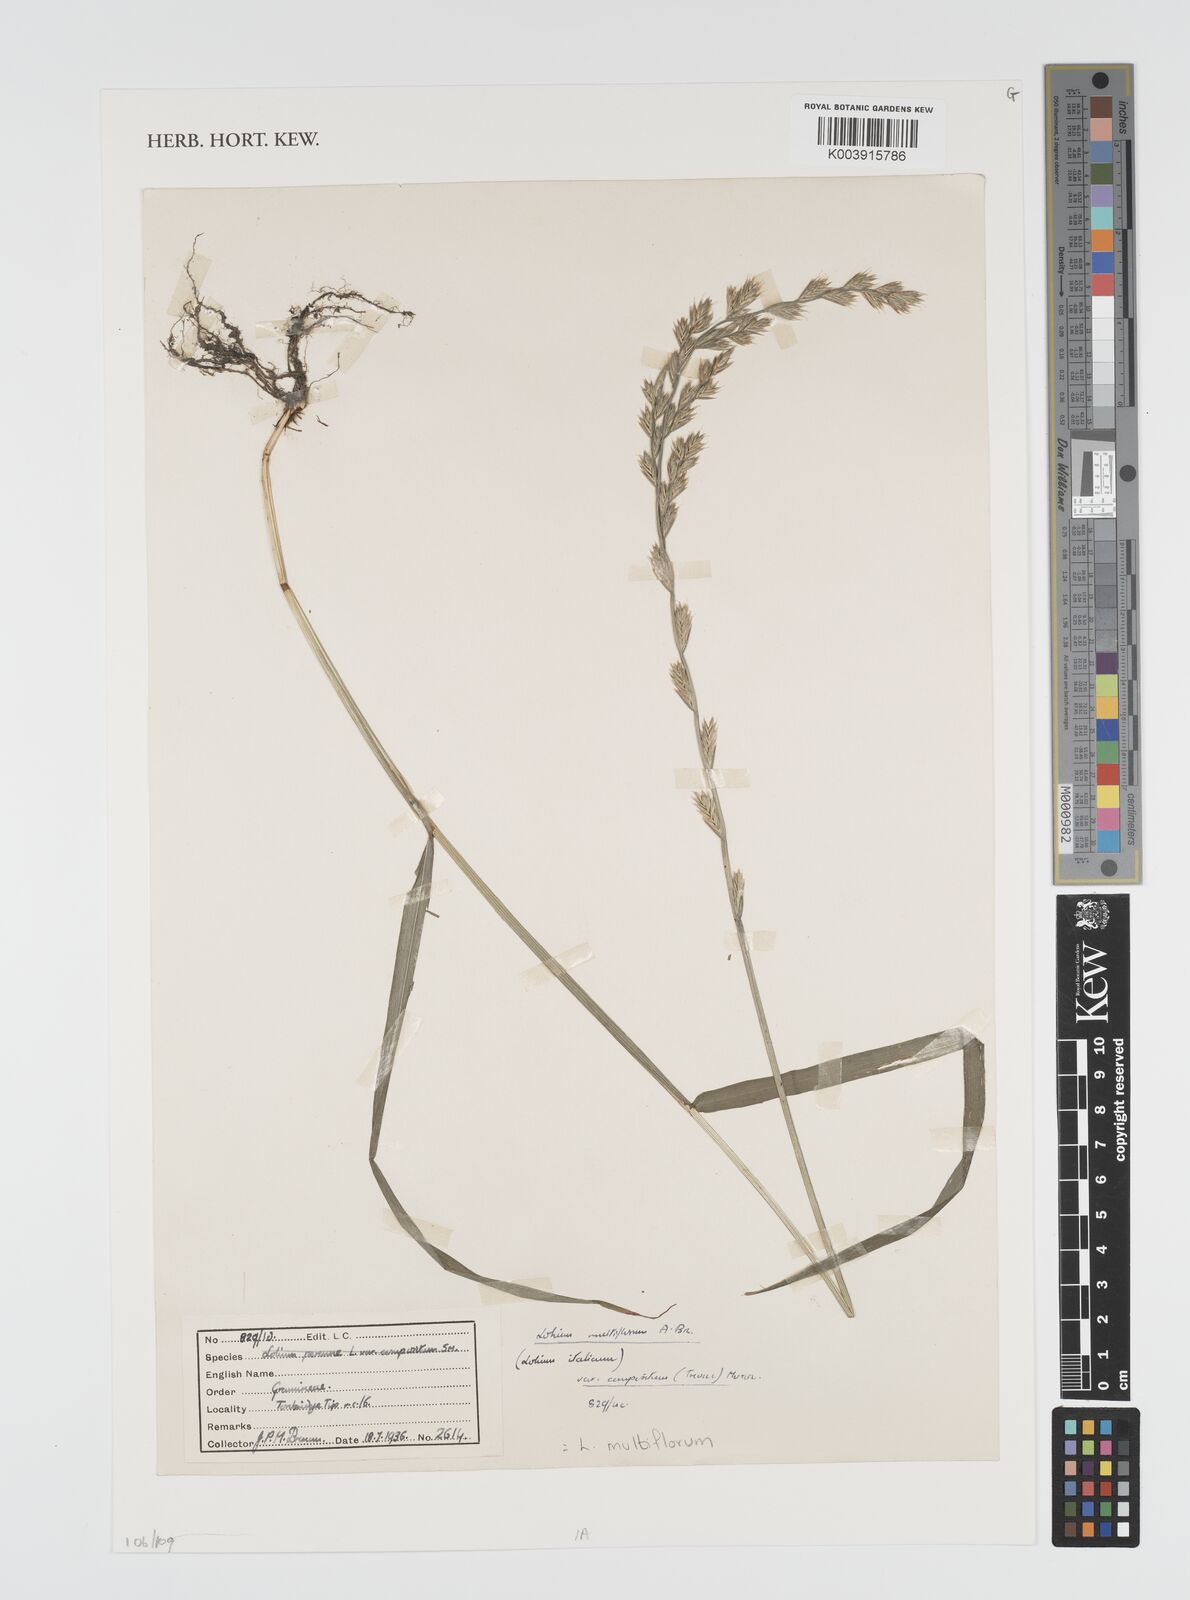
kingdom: Plantae
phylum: Tracheophyta
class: Liliopsida
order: Poales
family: Poaceae
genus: Lolium
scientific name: Lolium multiflorum
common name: Annual ryegrass
